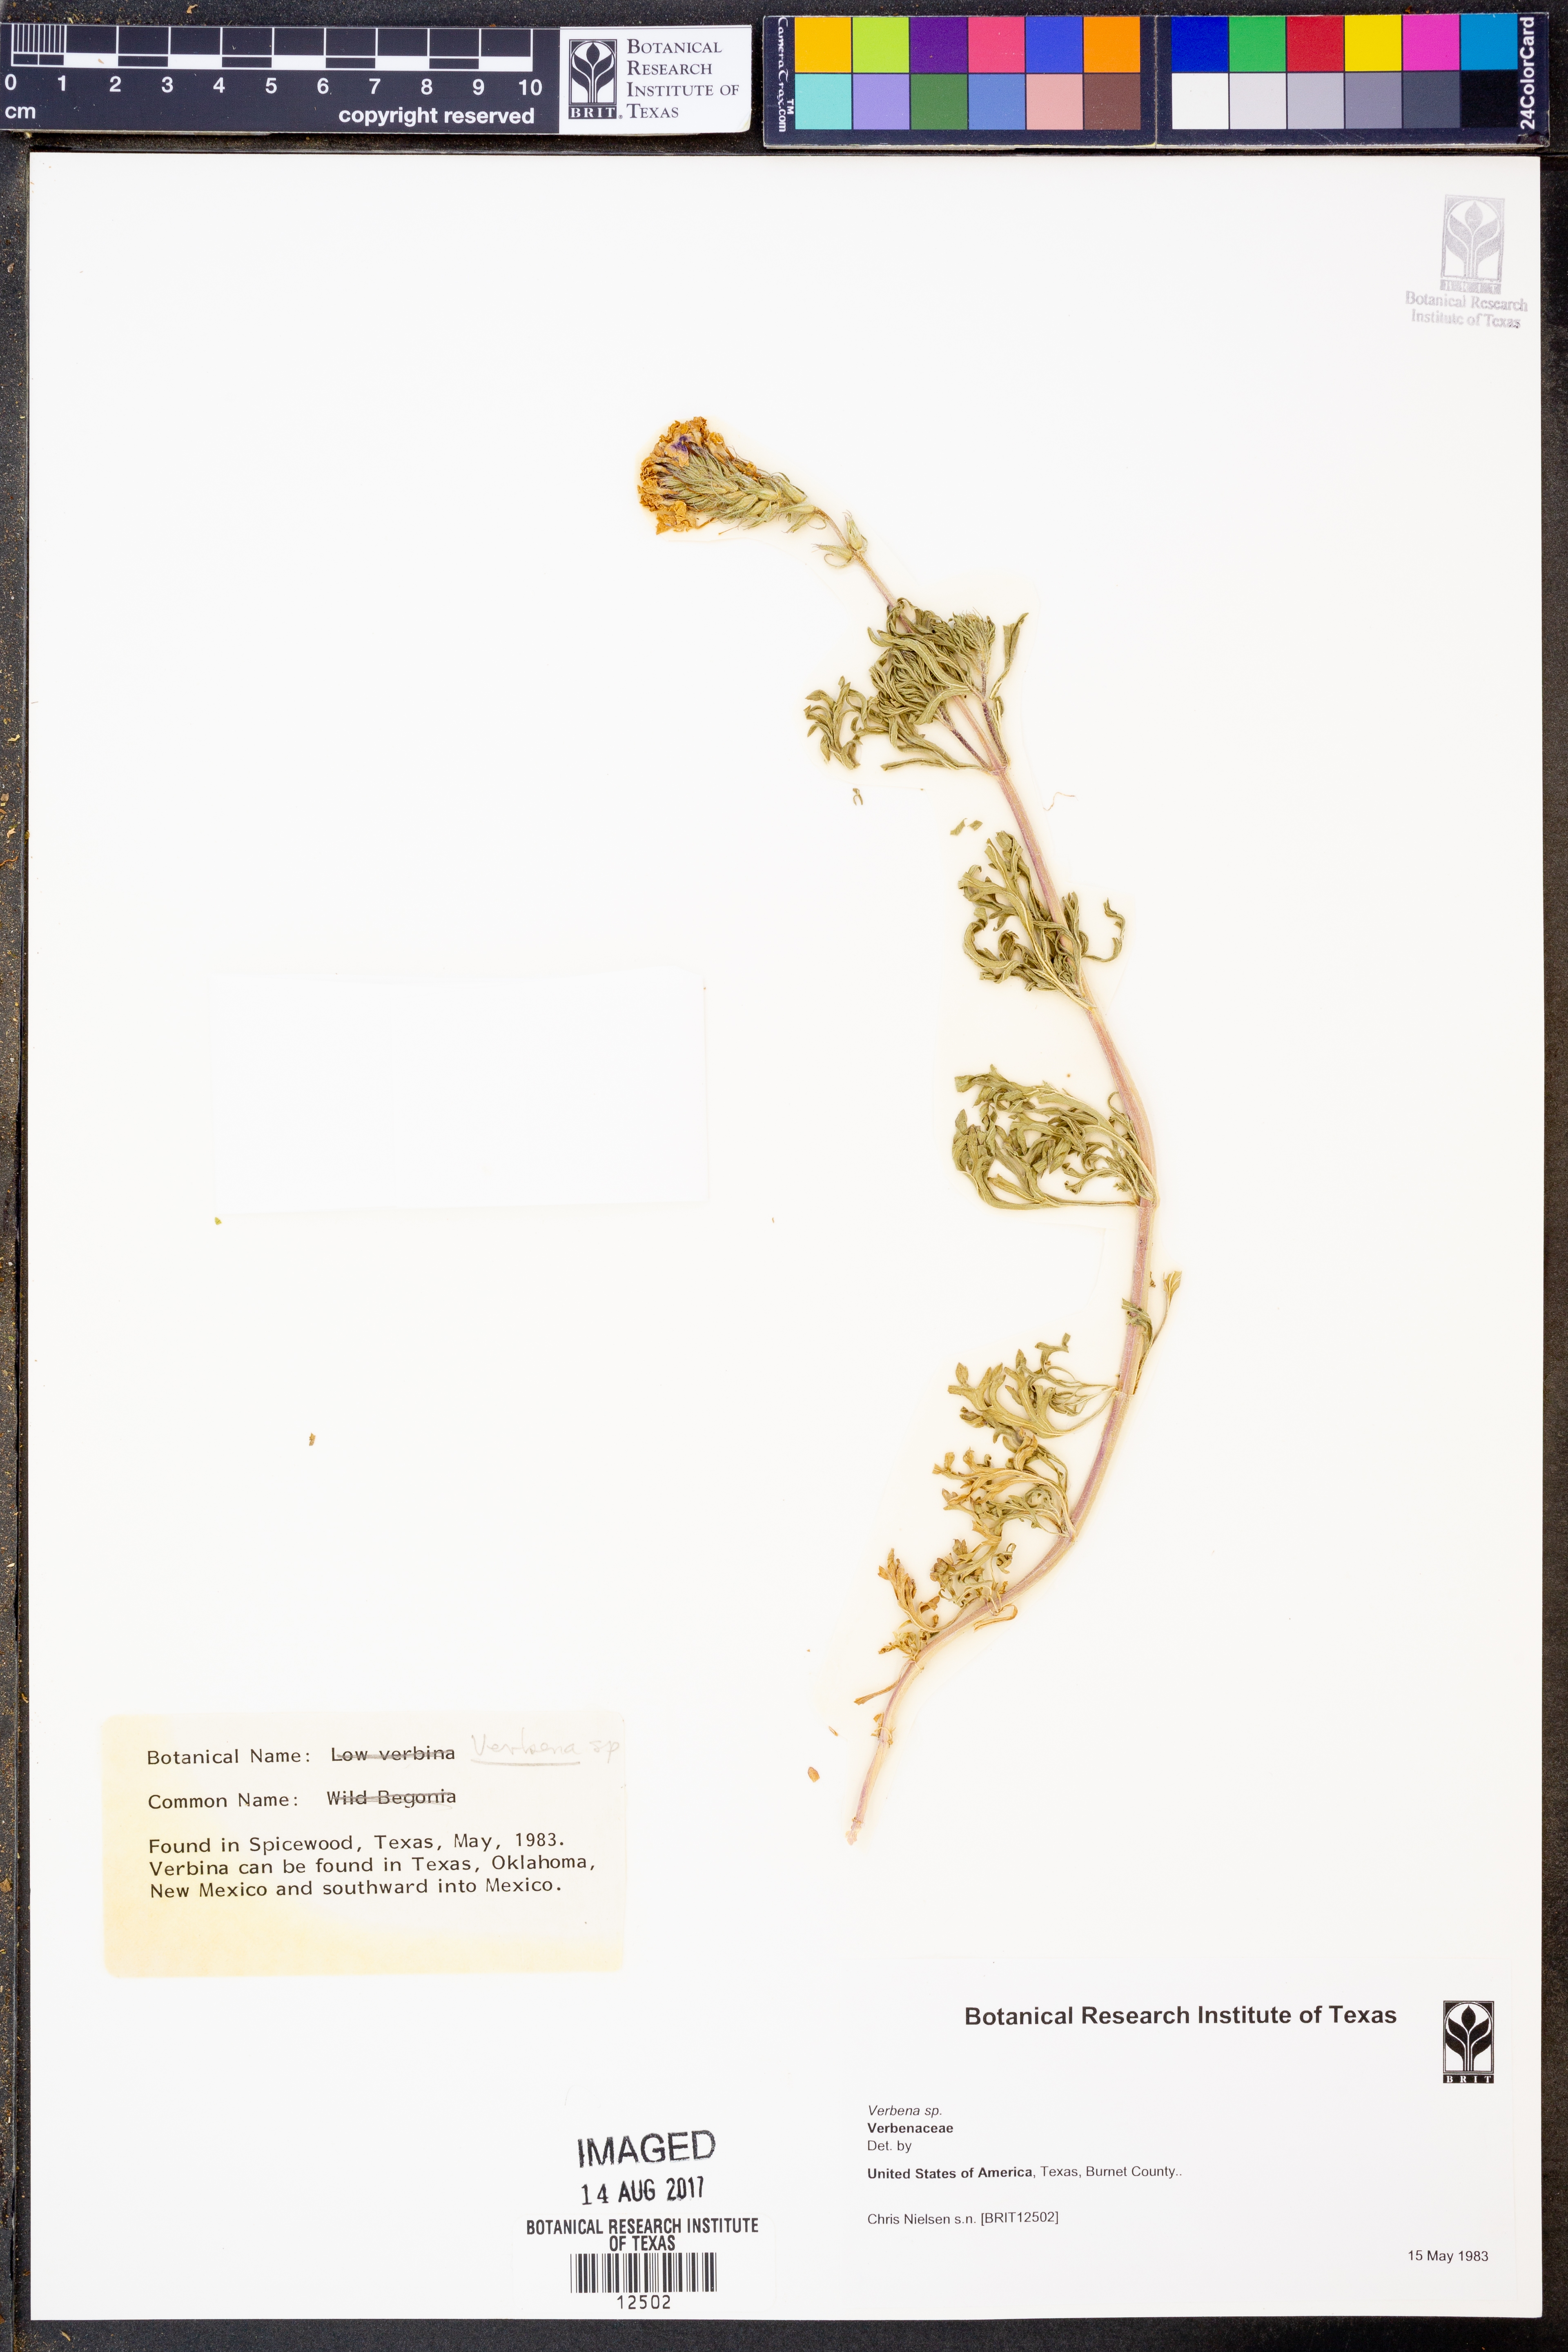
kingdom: Plantae
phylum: Tracheophyta
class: Magnoliopsida
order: Lamiales
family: Verbenaceae
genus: Verbena
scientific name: Verbena
